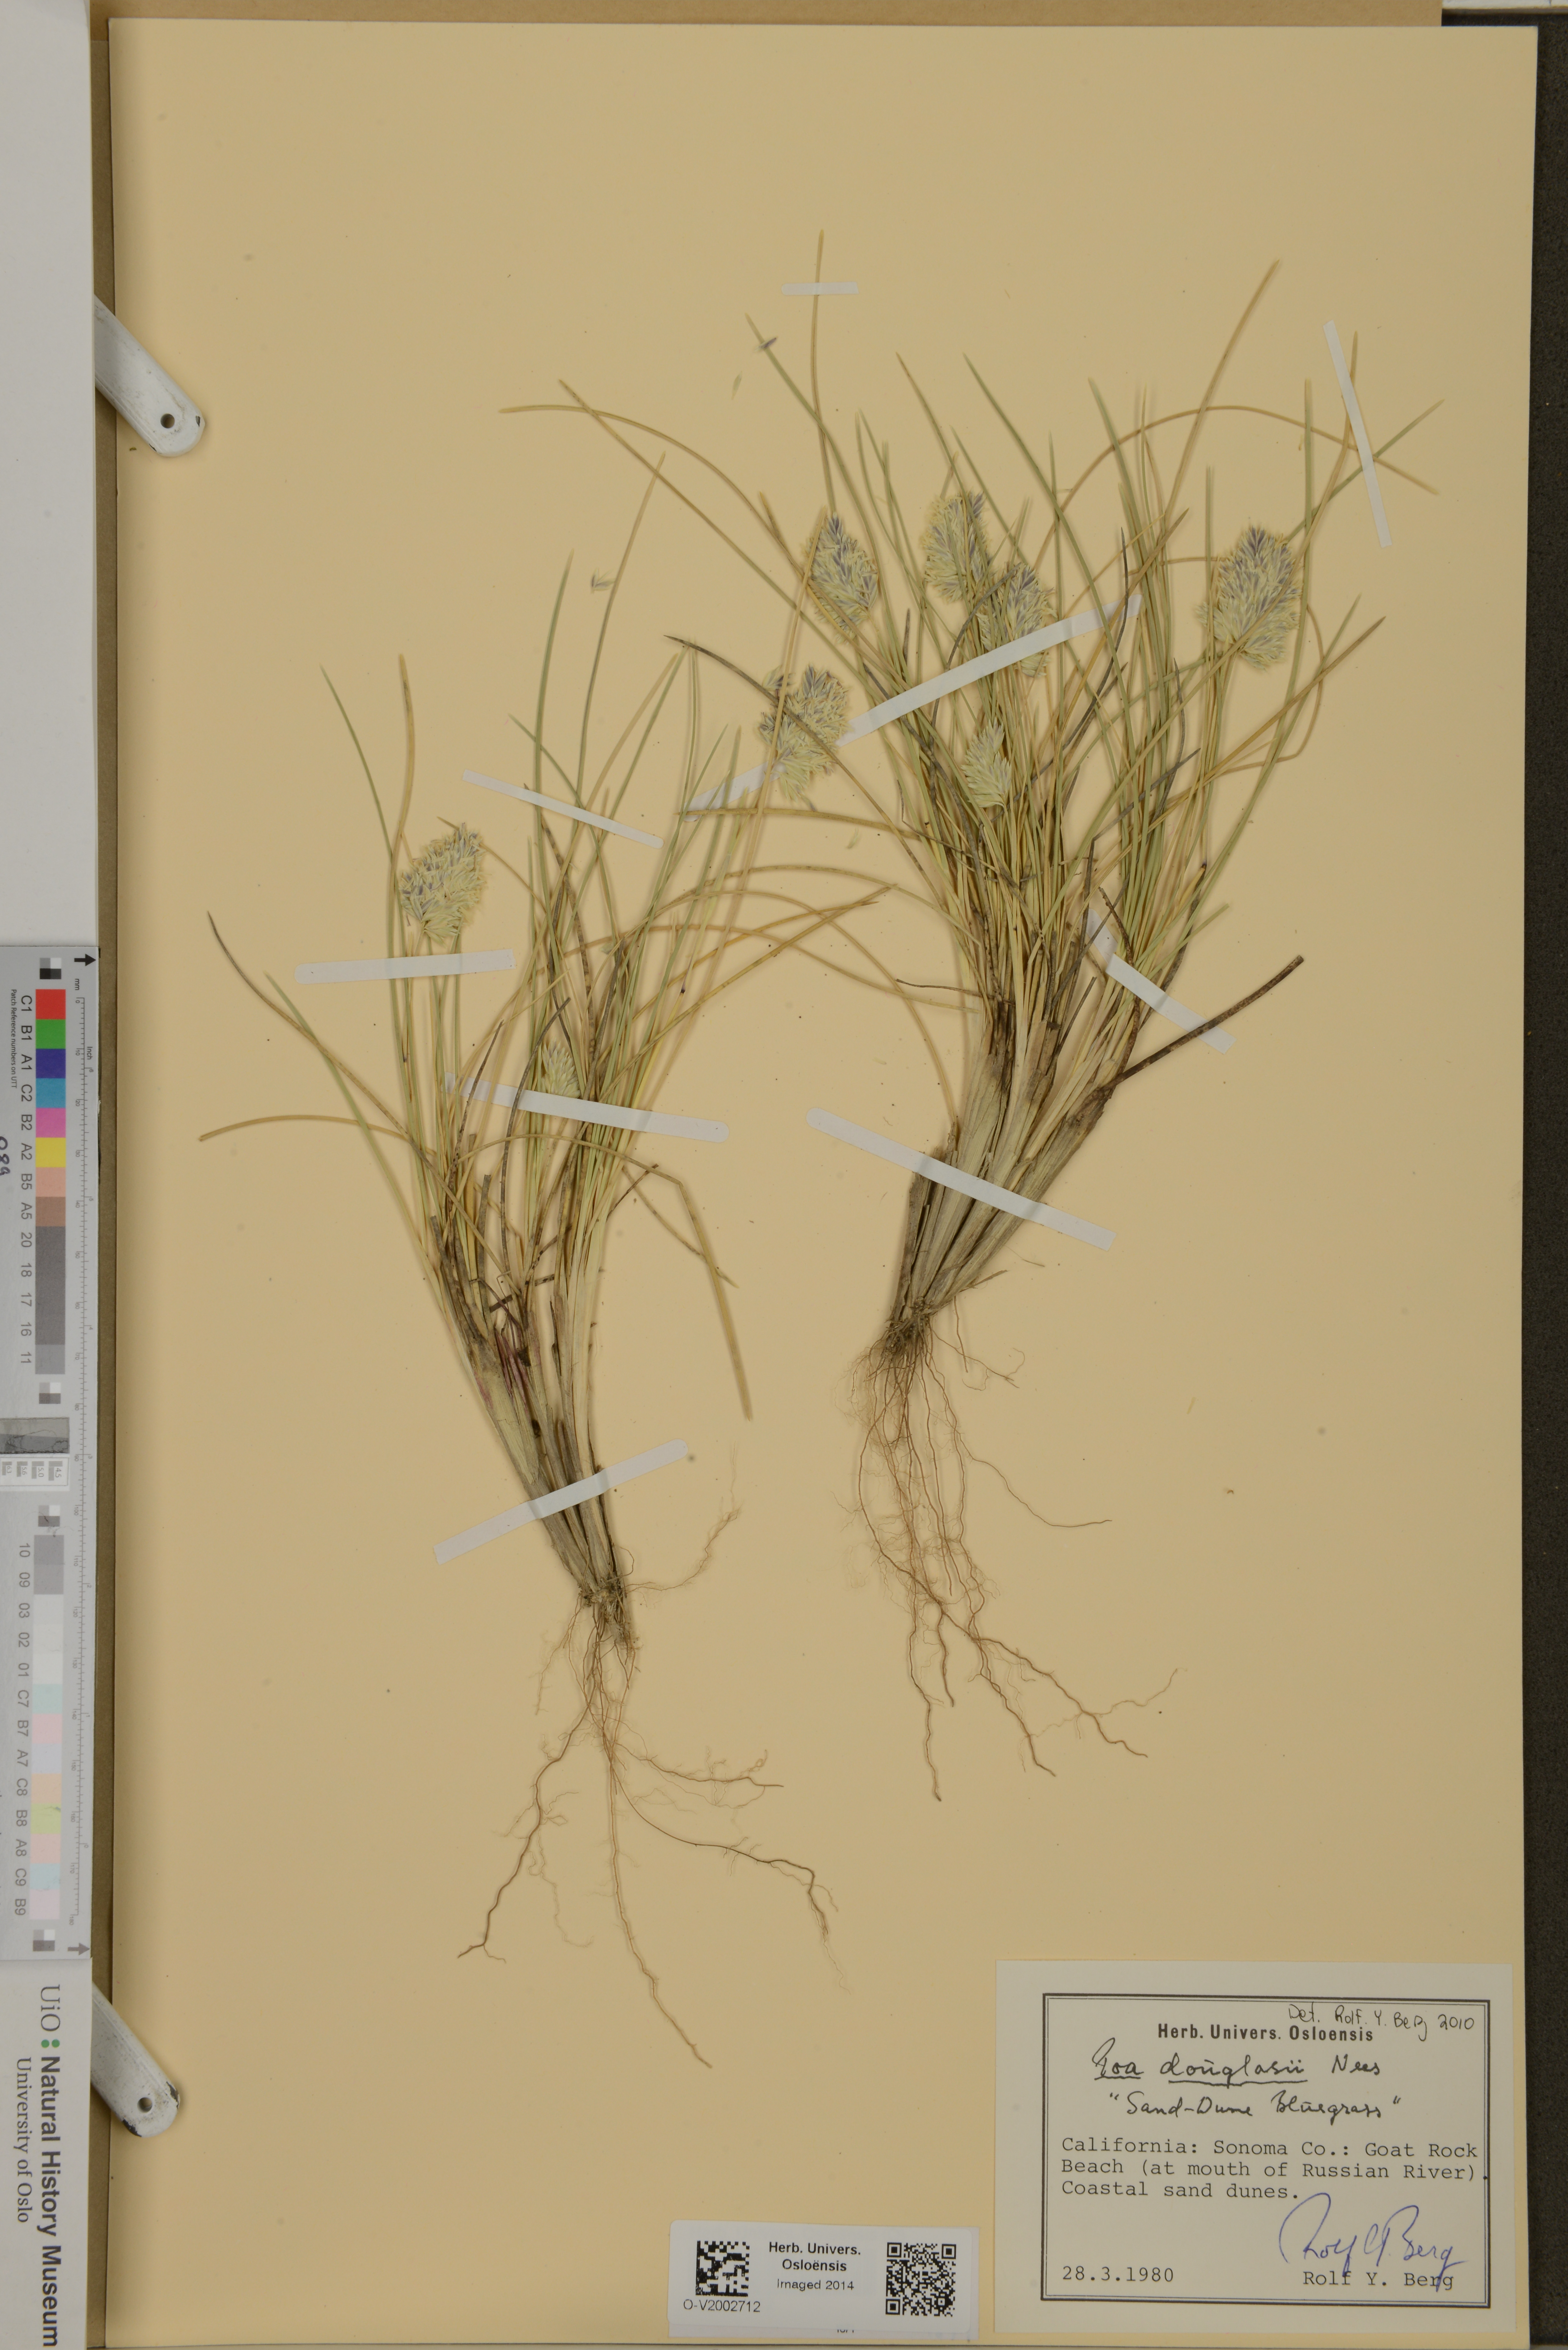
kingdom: Plantae
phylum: Tracheophyta
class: Liliopsida
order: Poales
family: Poaceae
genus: Poa
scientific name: Poa douglasii
